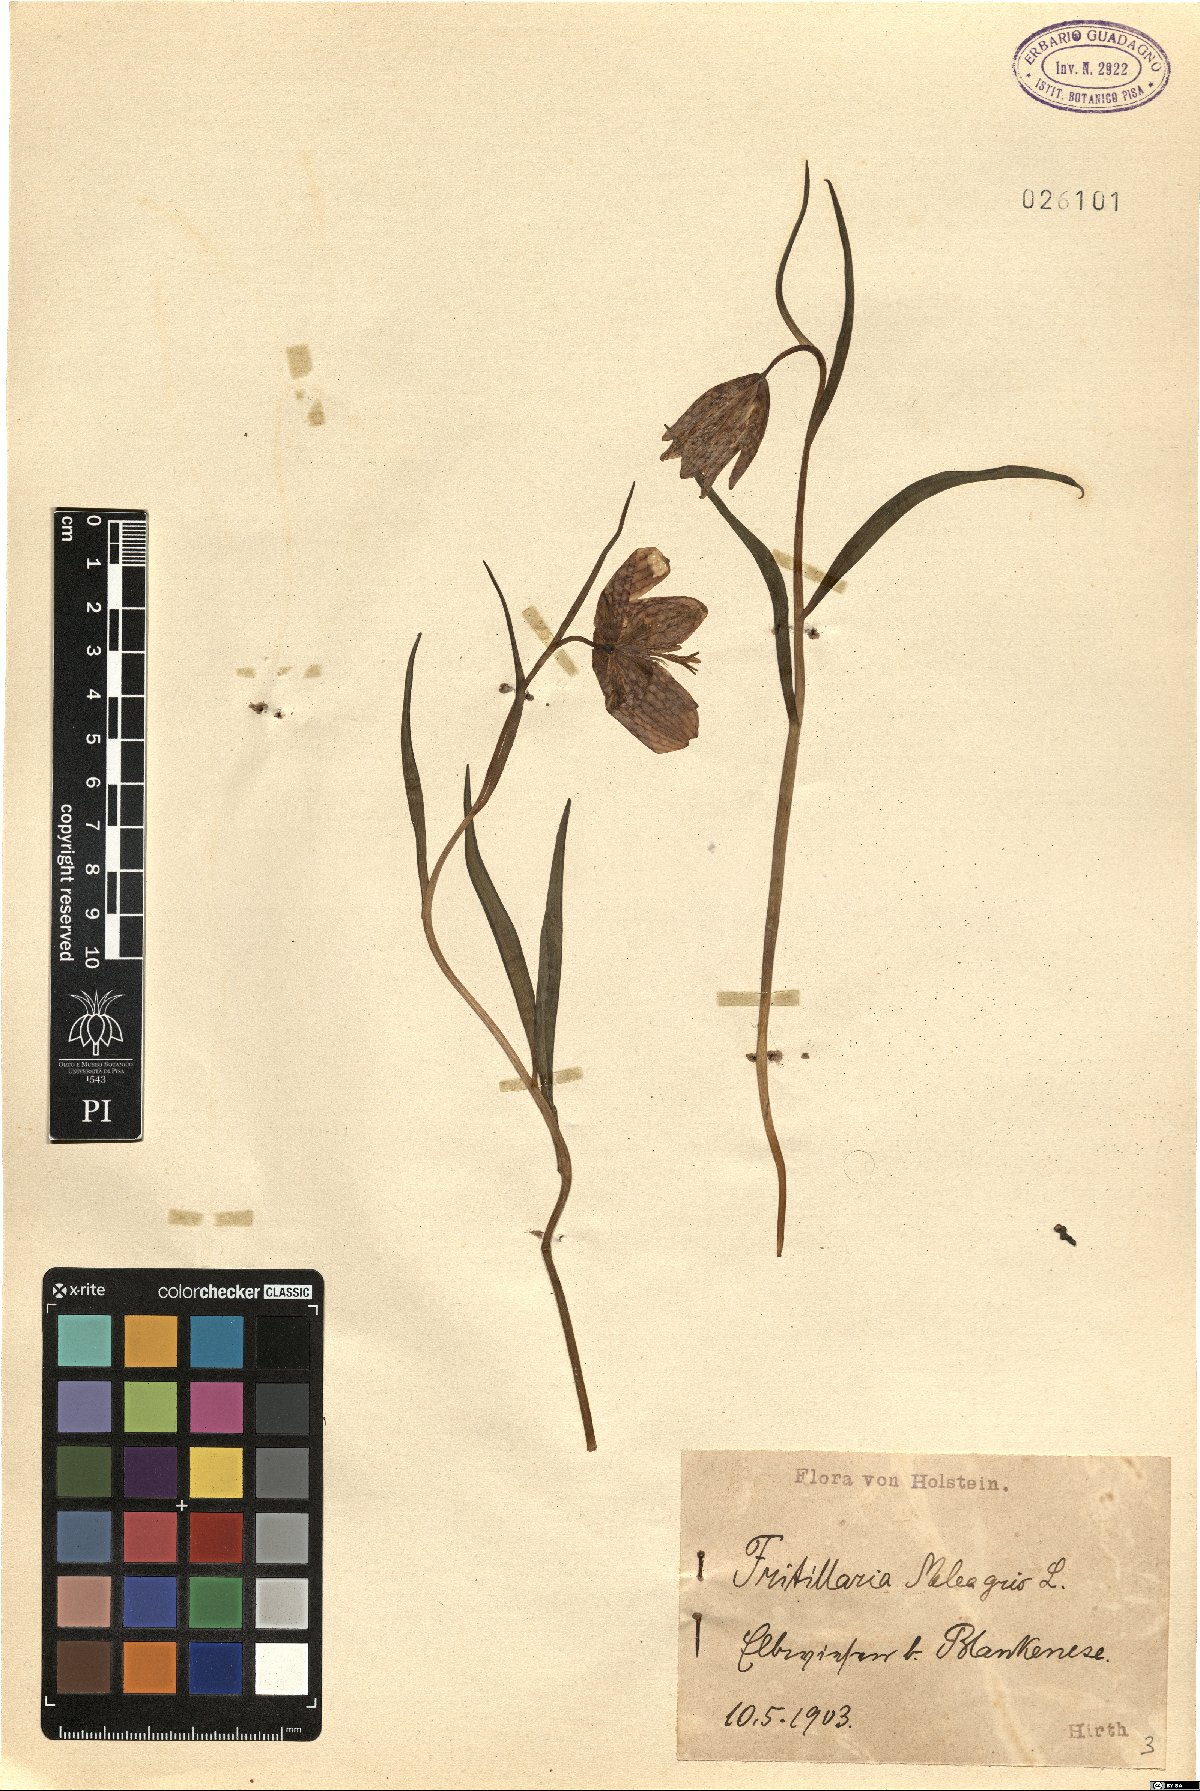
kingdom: Plantae
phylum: Tracheophyta
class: Liliopsida
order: Liliales
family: Liliaceae
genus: Fritillaria
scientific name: Fritillaria meleagris
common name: Fritillary
